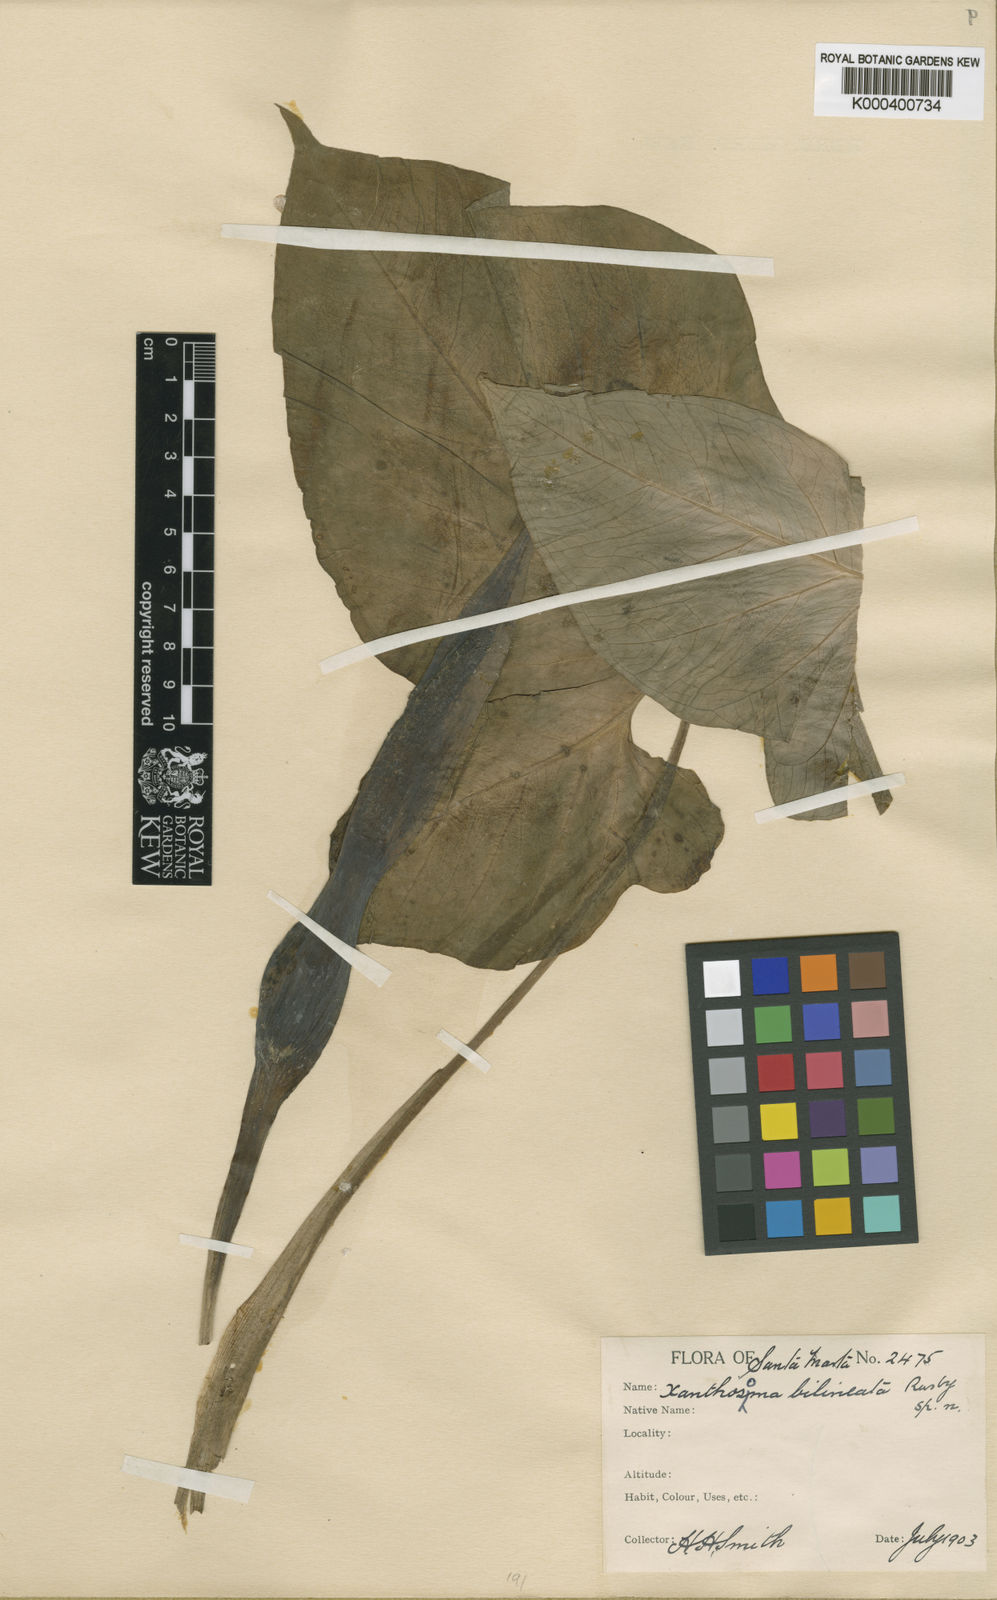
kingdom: Plantae
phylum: Tracheophyta
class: Liliopsida
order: Alismatales
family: Araceae
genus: Xanthosoma
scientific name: Xanthosoma bilineatum
